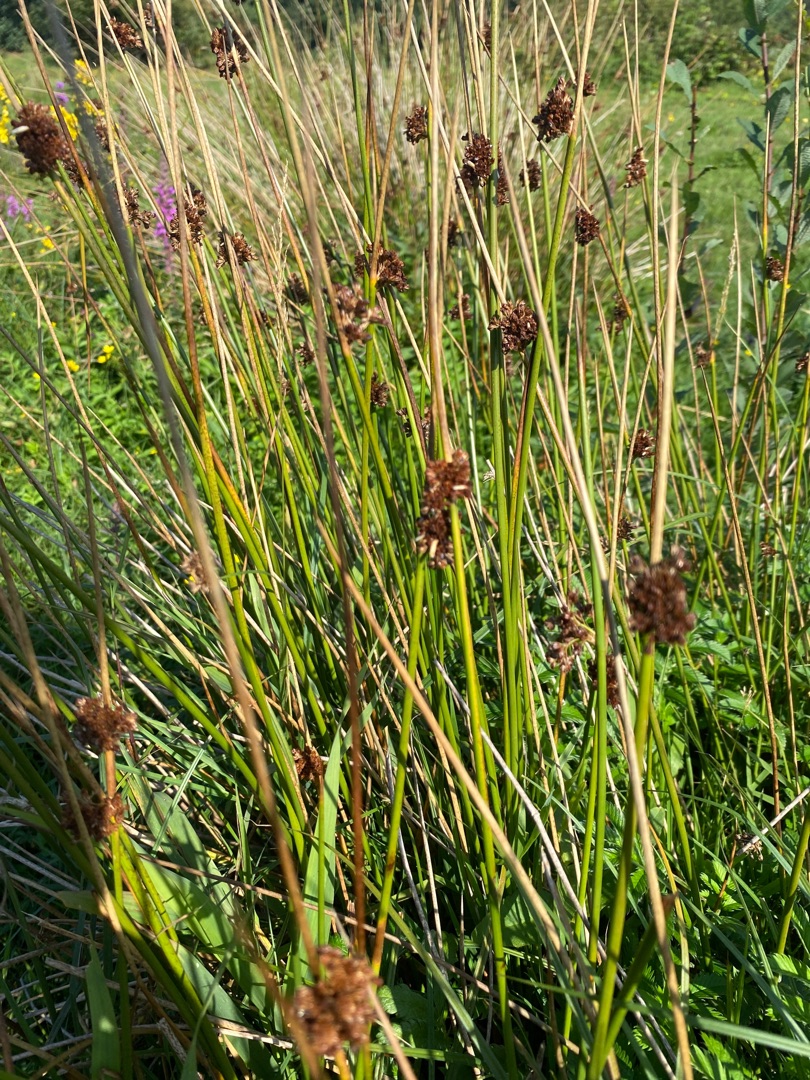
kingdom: Plantae
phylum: Tracheophyta
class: Liliopsida
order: Poales
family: Juncaceae
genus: Juncus
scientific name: Juncus effusus
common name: Lyse-siv
